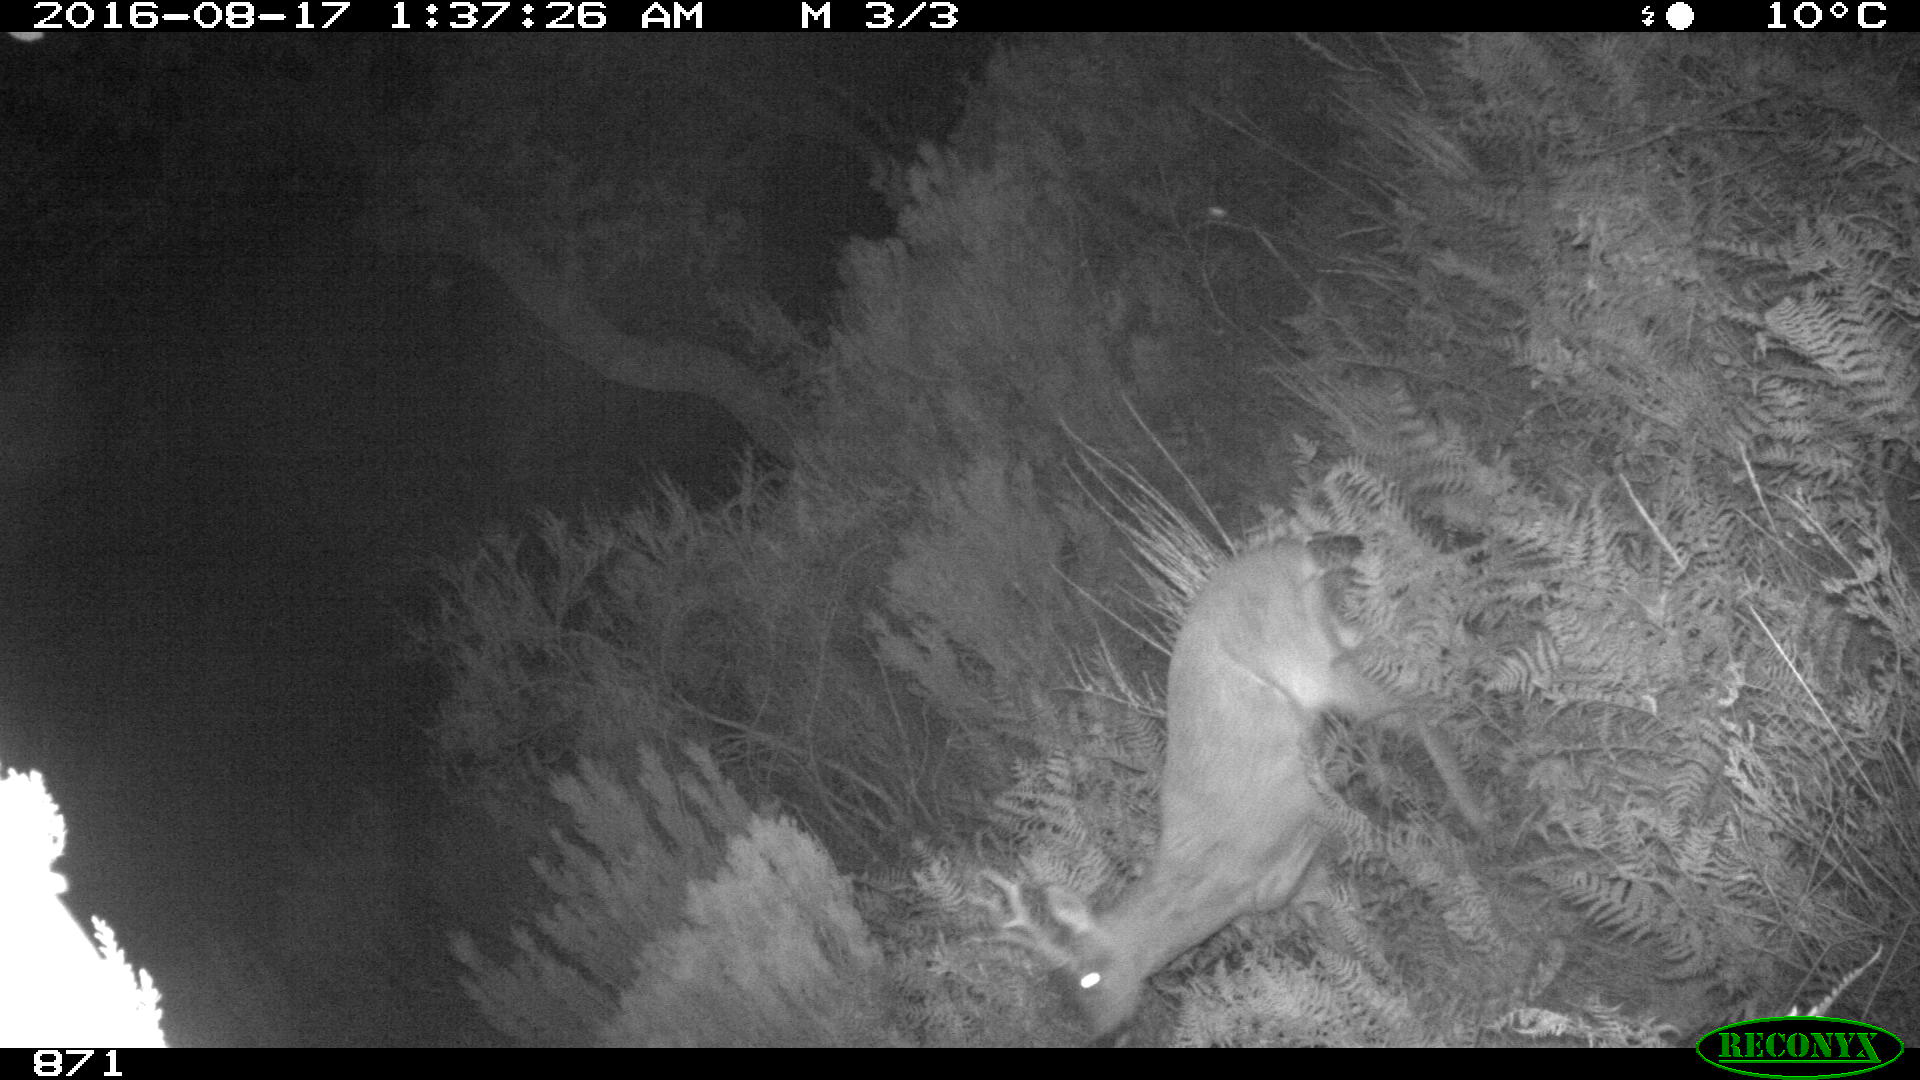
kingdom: Animalia
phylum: Chordata
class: Mammalia
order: Artiodactyla
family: Cervidae
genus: Capreolus
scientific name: Capreolus capreolus
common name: Western roe deer
